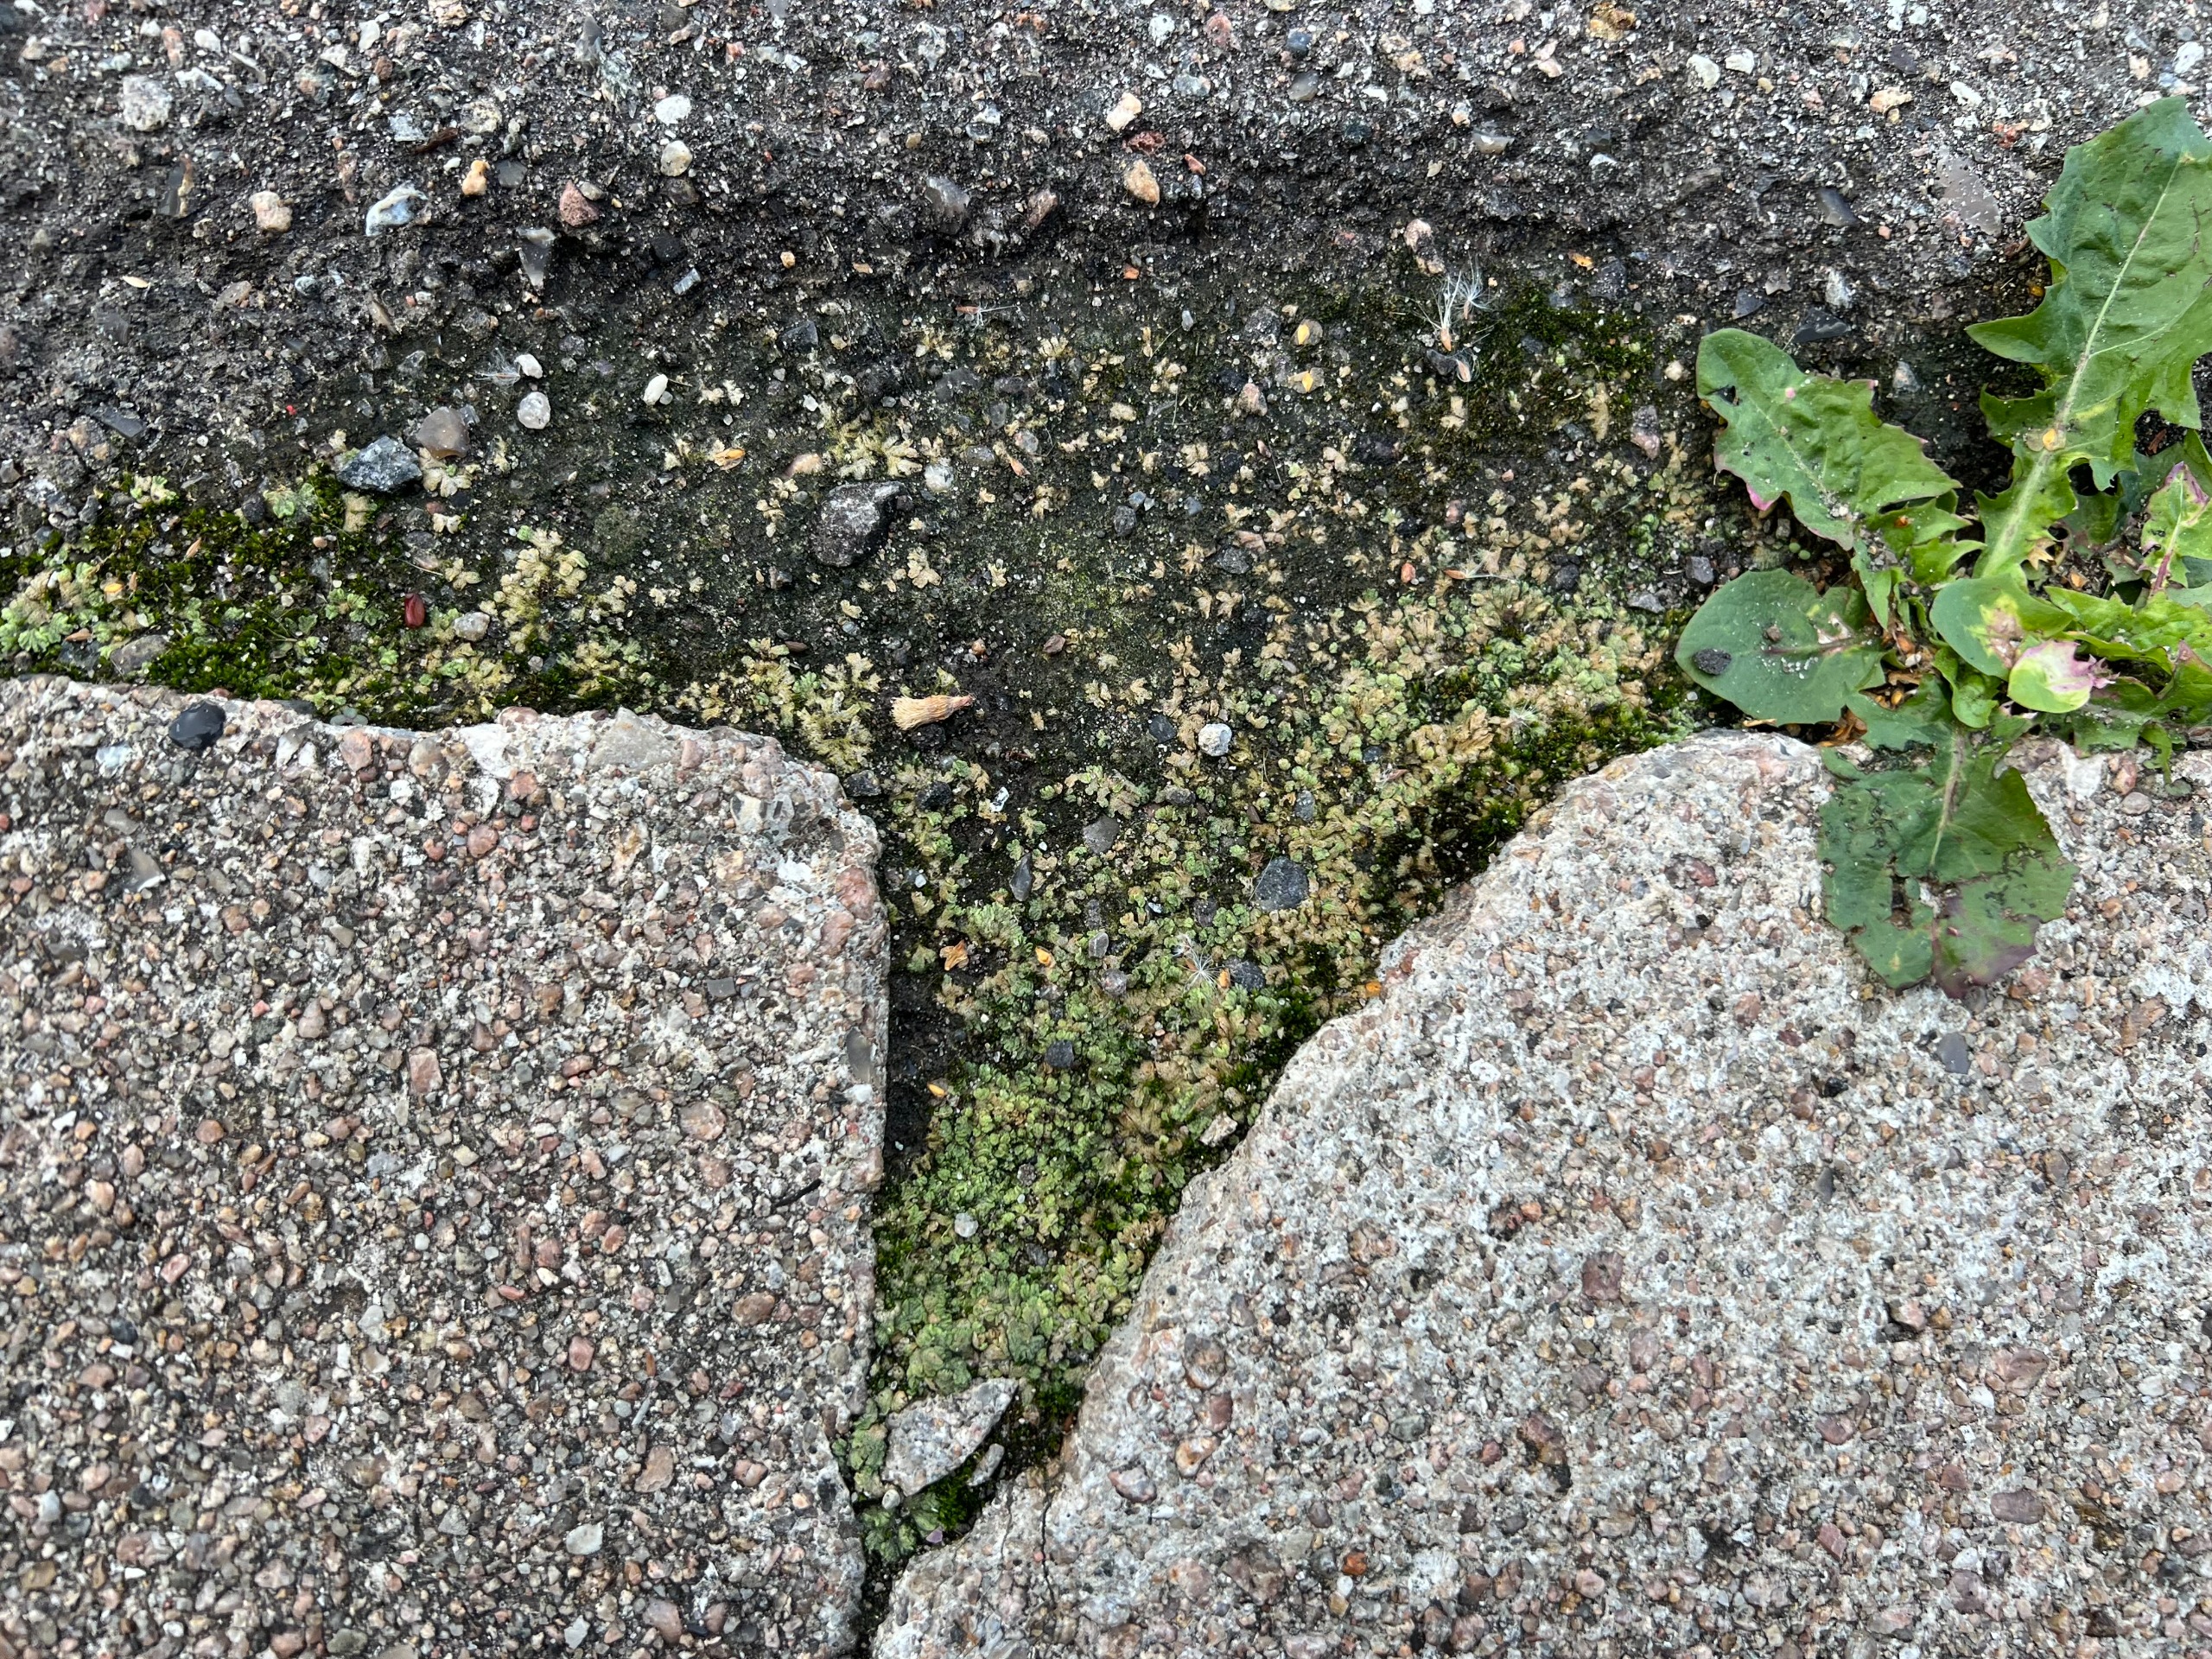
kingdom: Plantae
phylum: Marchantiophyta
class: Marchantiopsida
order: Marchantiales
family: Ricciaceae
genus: Riccia
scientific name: Riccia cavernosa
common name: Grubet stjerneløv
